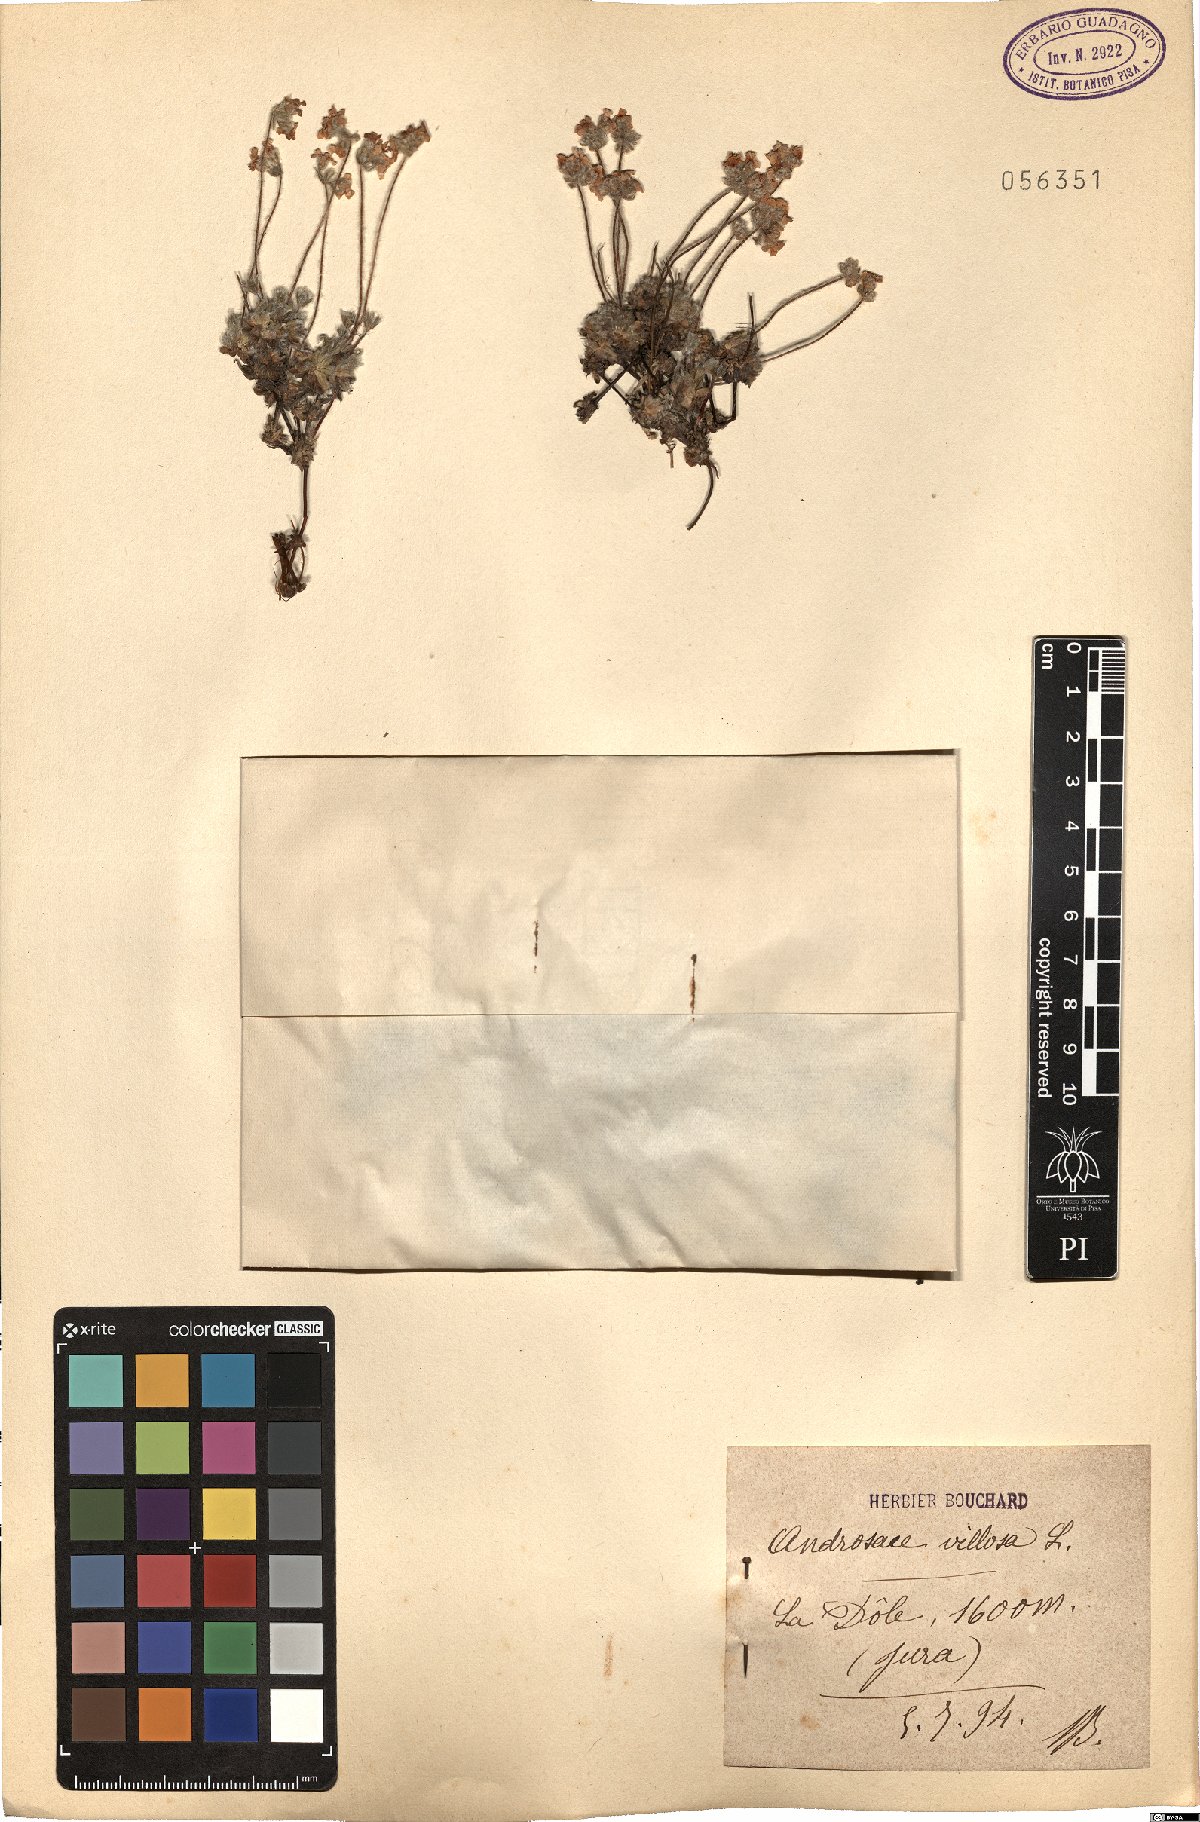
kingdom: Plantae
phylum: Tracheophyta
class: Magnoliopsida
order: Ericales
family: Primulaceae
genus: Androsace
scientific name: Androsace villosa
